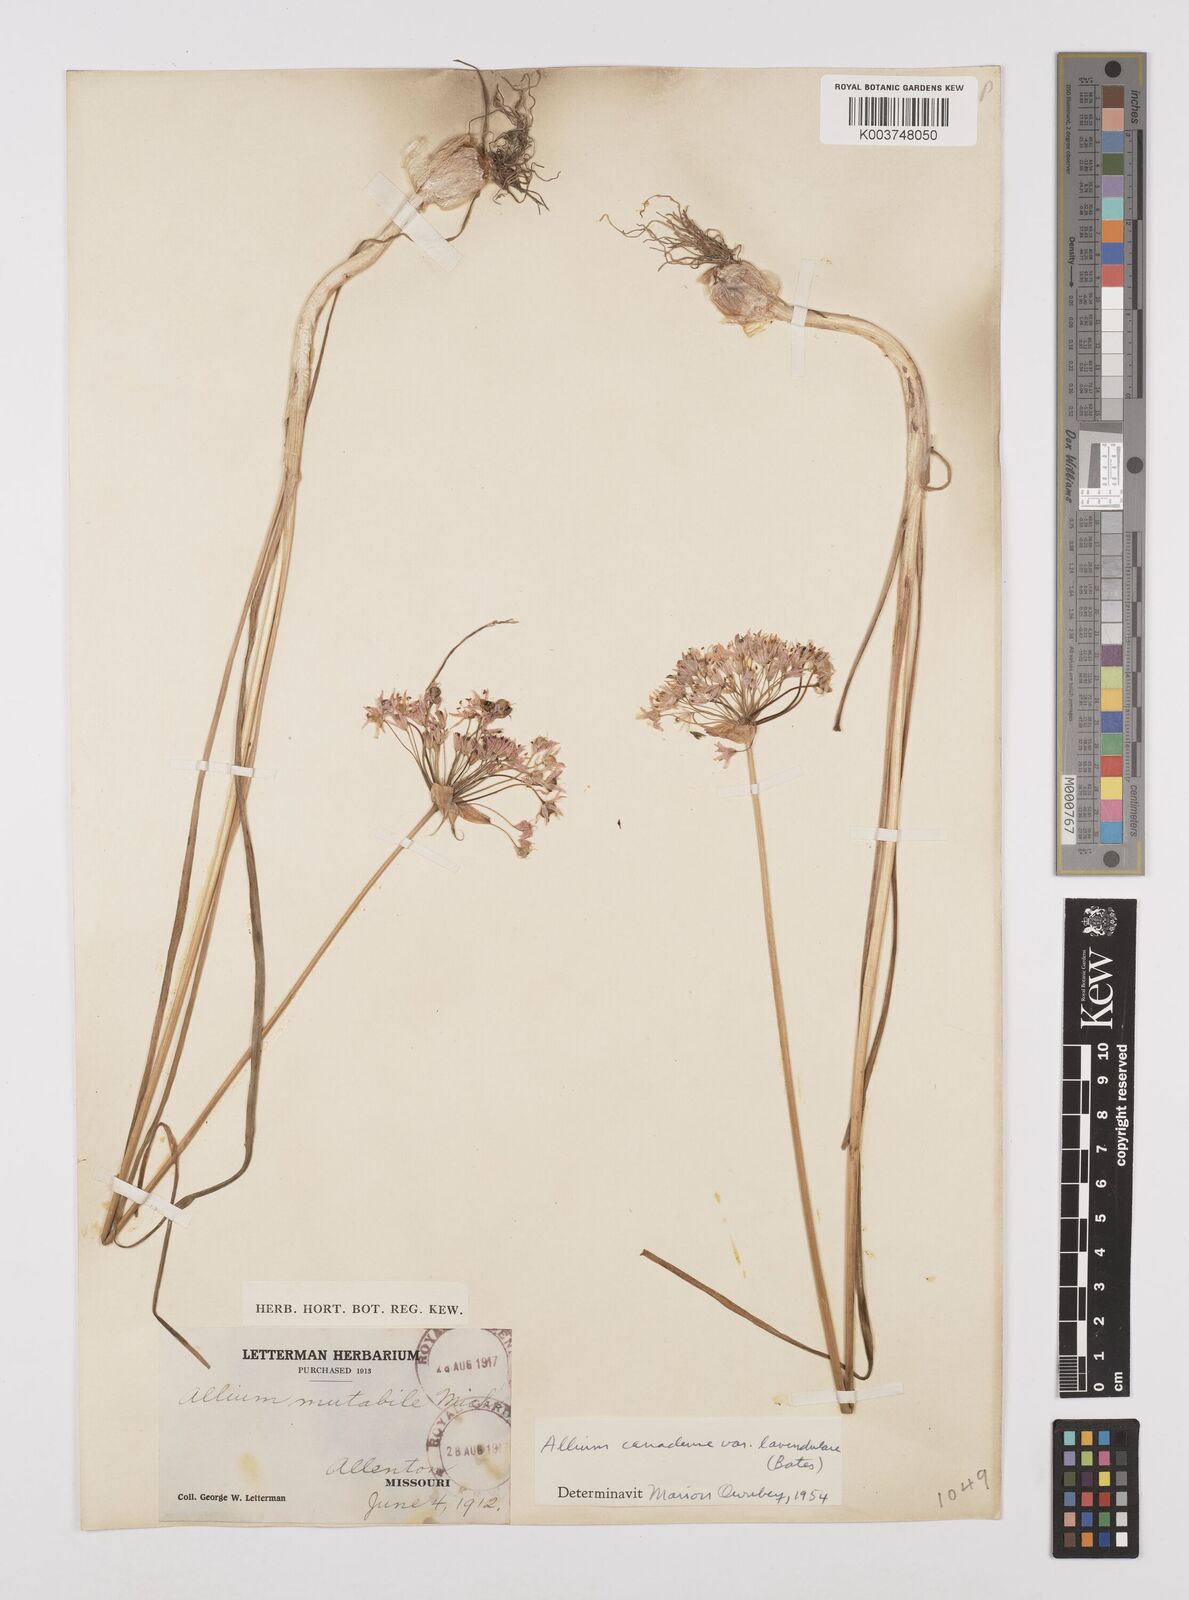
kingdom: Plantae
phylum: Tracheophyta
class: Liliopsida
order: Asparagales
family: Amaryllidaceae
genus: Allium
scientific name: Allium canadense
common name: Meadow garlic
